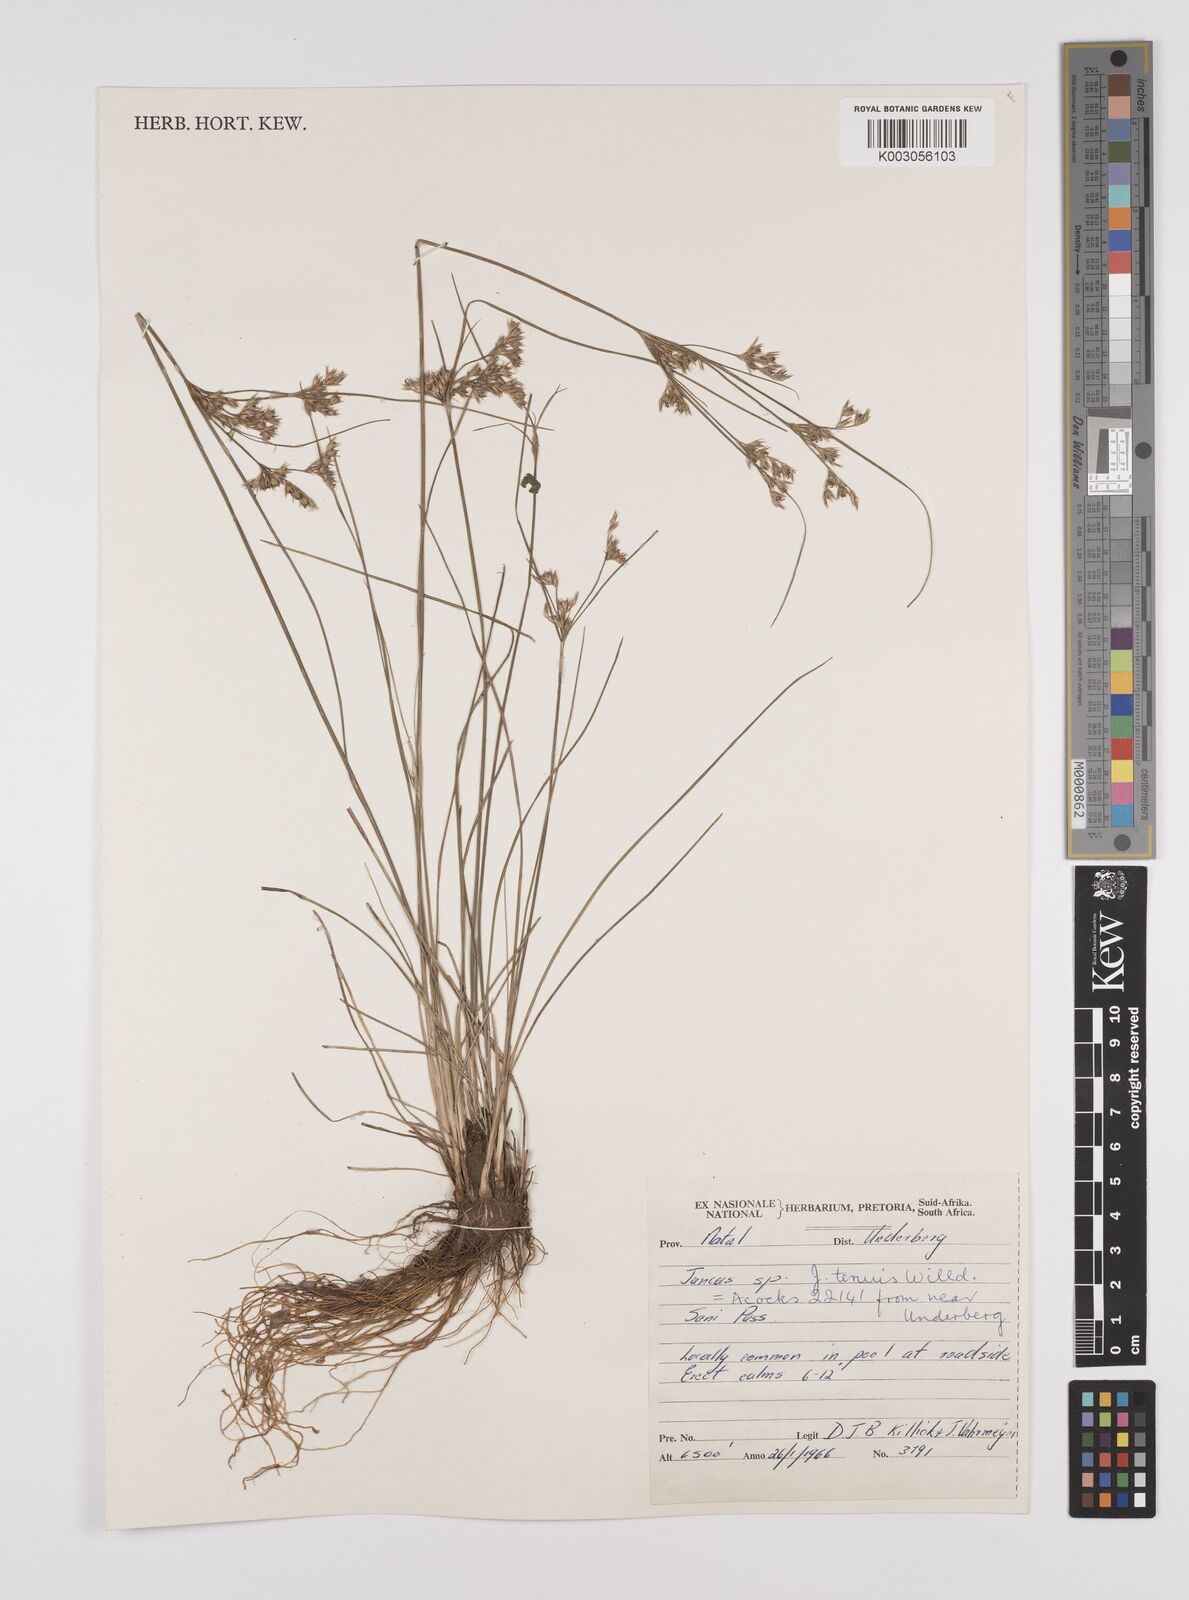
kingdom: Plantae
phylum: Tracheophyta
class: Liliopsida
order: Poales
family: Juncaceae
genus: Juncus
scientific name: Juncus tenuis
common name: Slender rush
